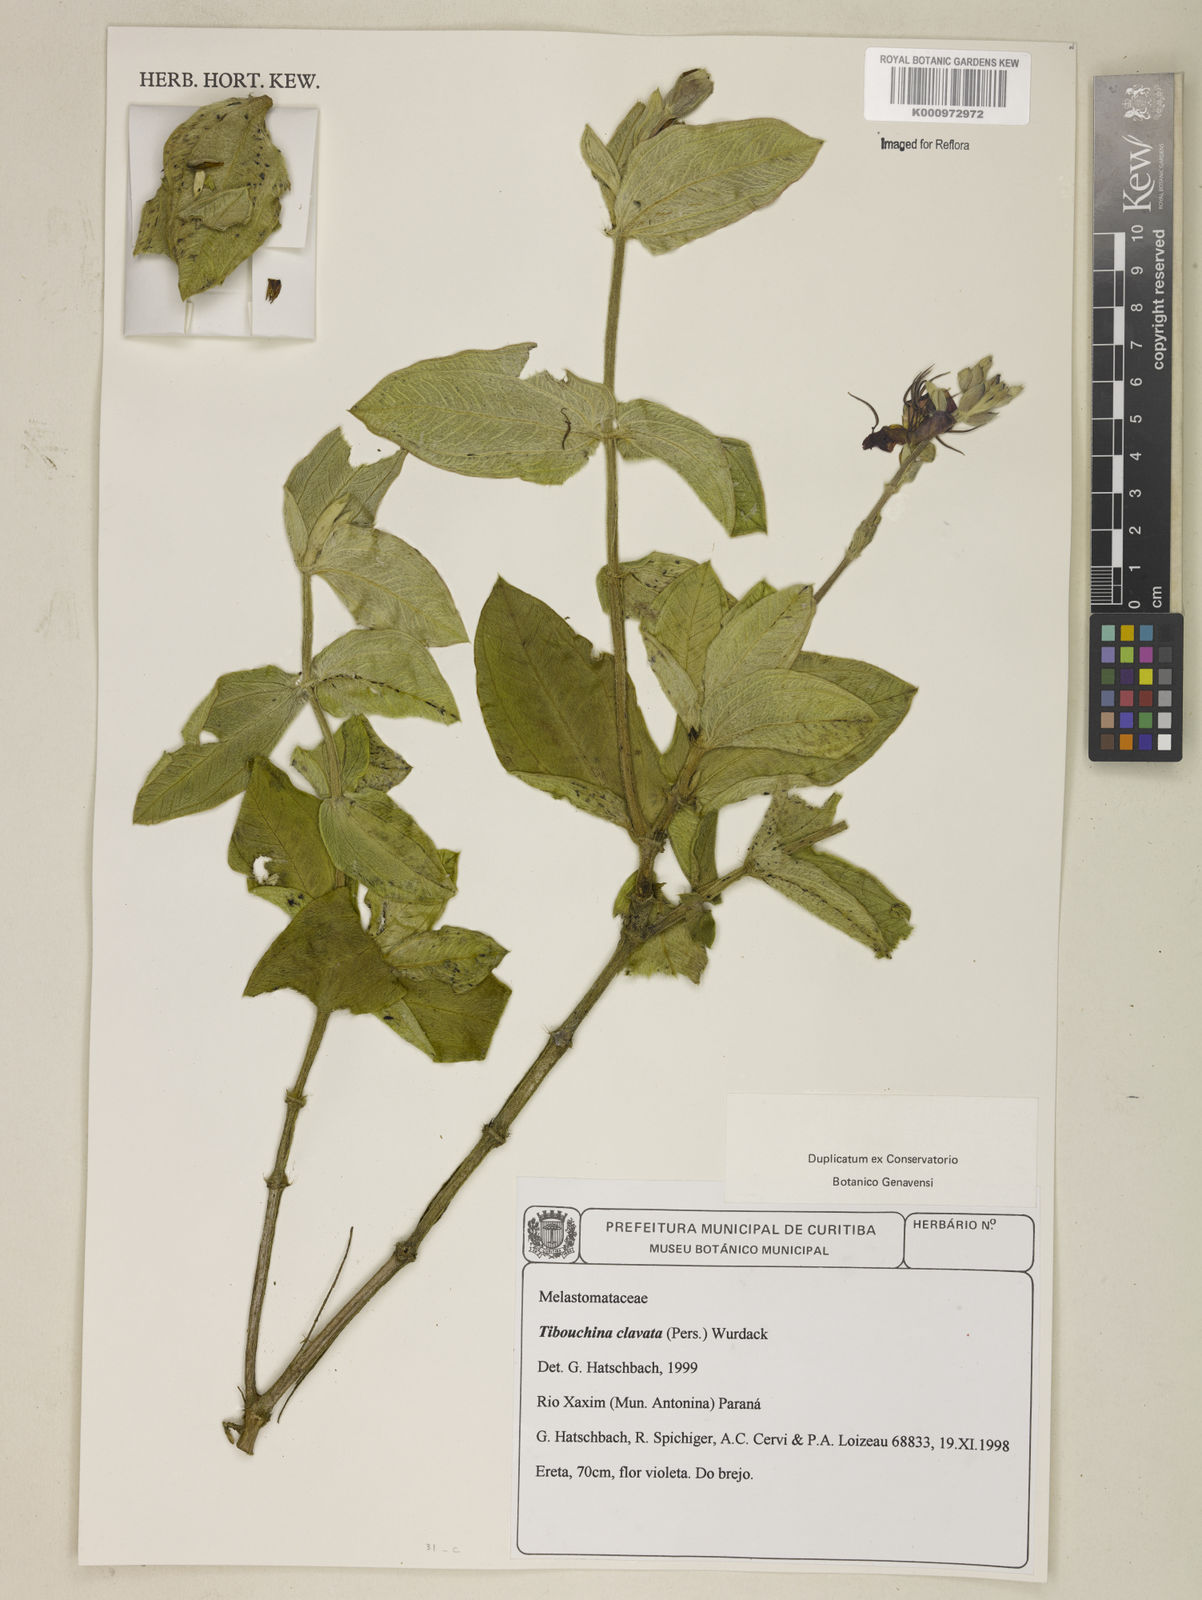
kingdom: Plantae
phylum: Tracheophyta
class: Magnoliopsida
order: Myrtales
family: Melastomataceae
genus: Pleroma
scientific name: Pleroma clavatum
